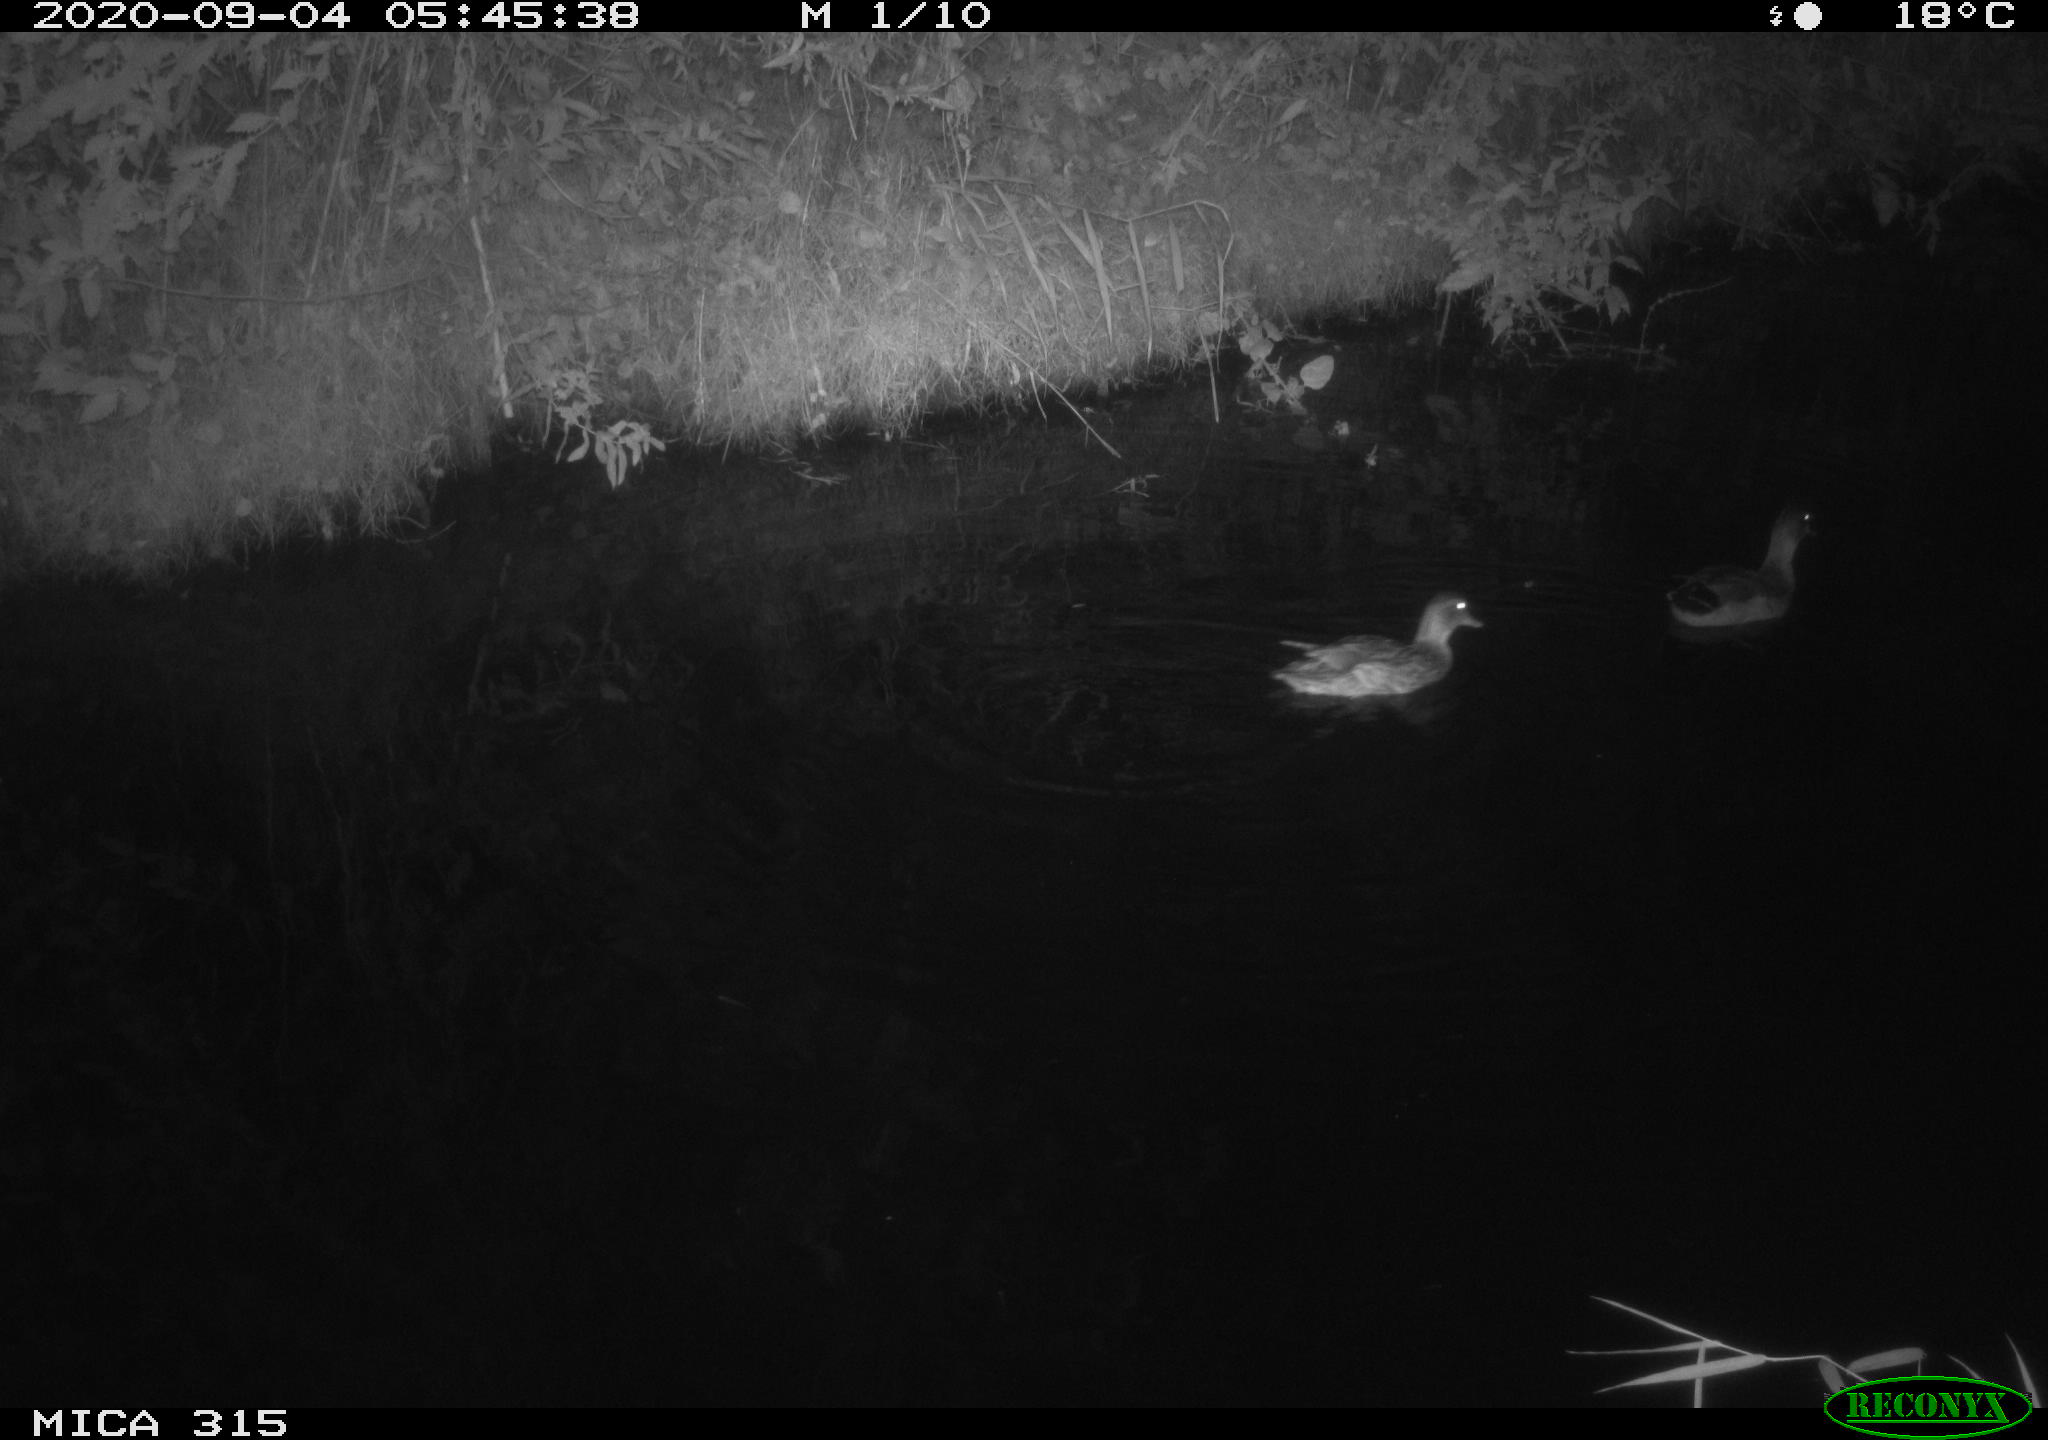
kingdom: Animalia
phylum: Chordata
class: Aves
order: Anseriformes
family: Anatidae
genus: Anas
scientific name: Anas platyrhynchos
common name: Mallard
